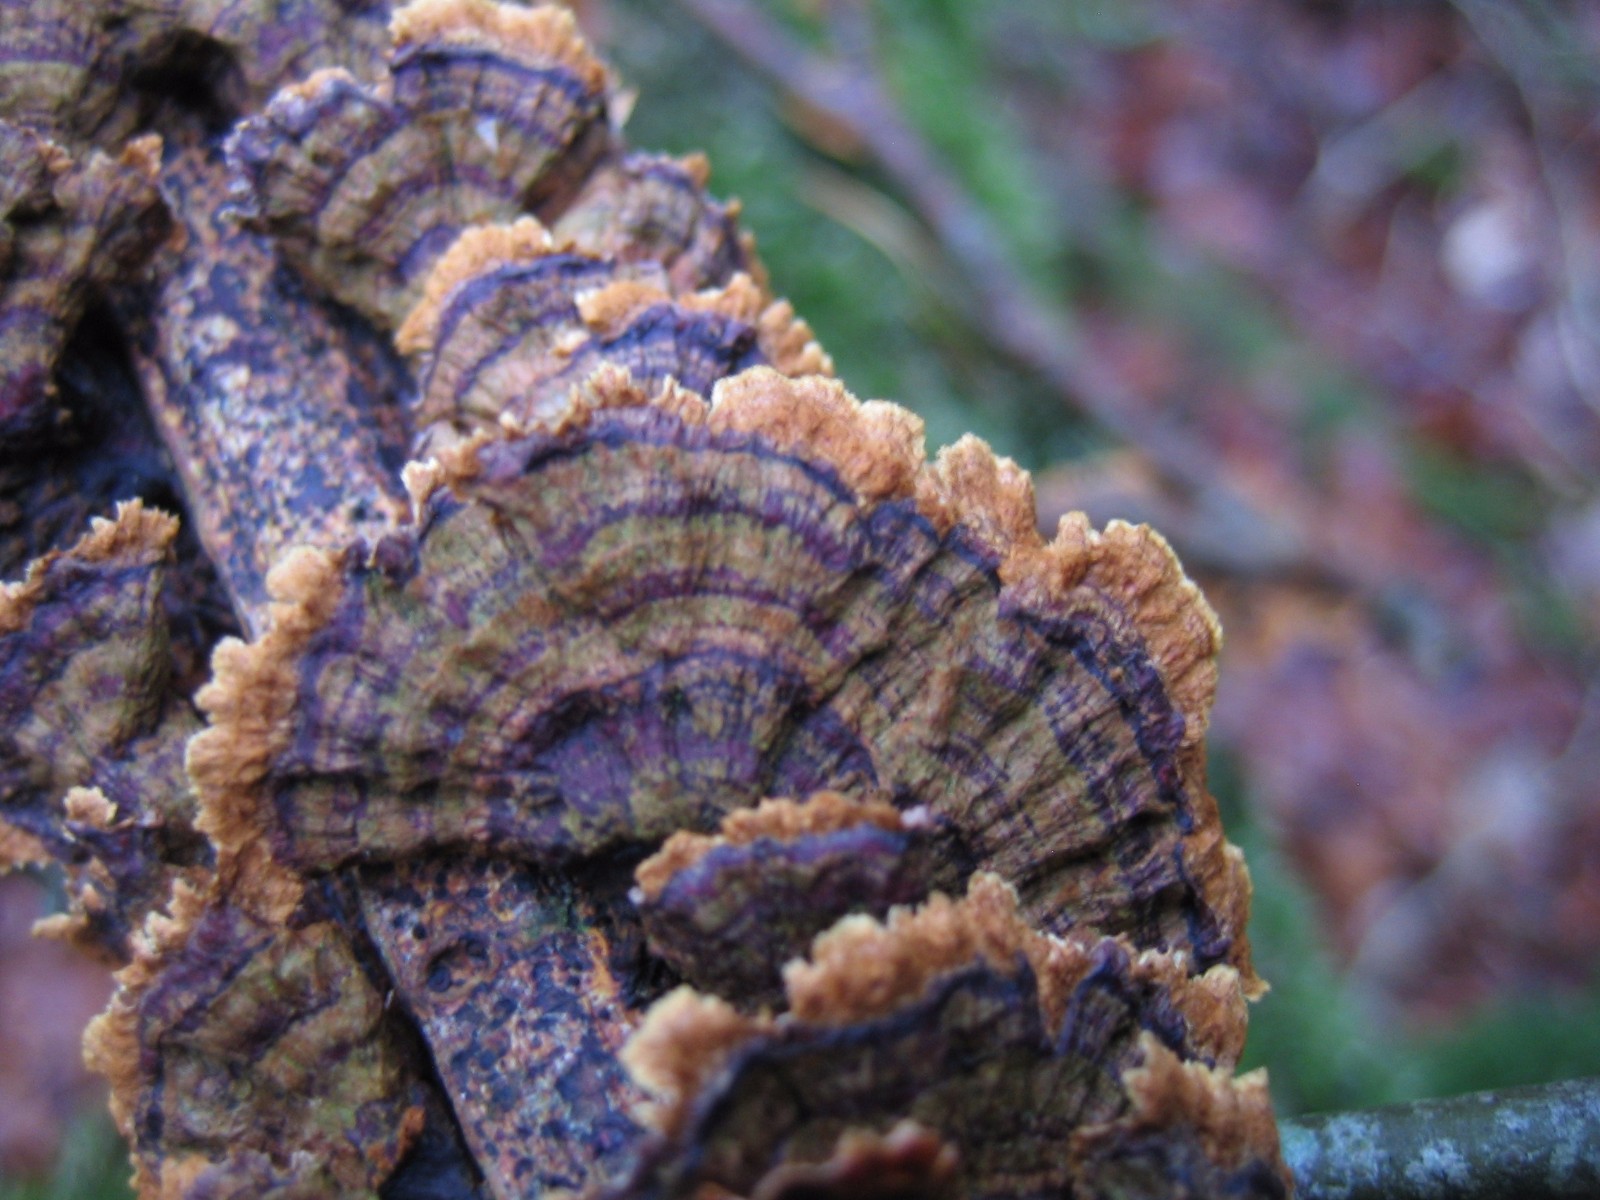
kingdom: Fungi
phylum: Basidiomycota
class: Agaricomycetes
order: Hymenochaetales
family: Hymenochaetaceae
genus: Hydnoporia
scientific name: Hydnoporia tabacina
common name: tobaksbrun ruslædersvamp
